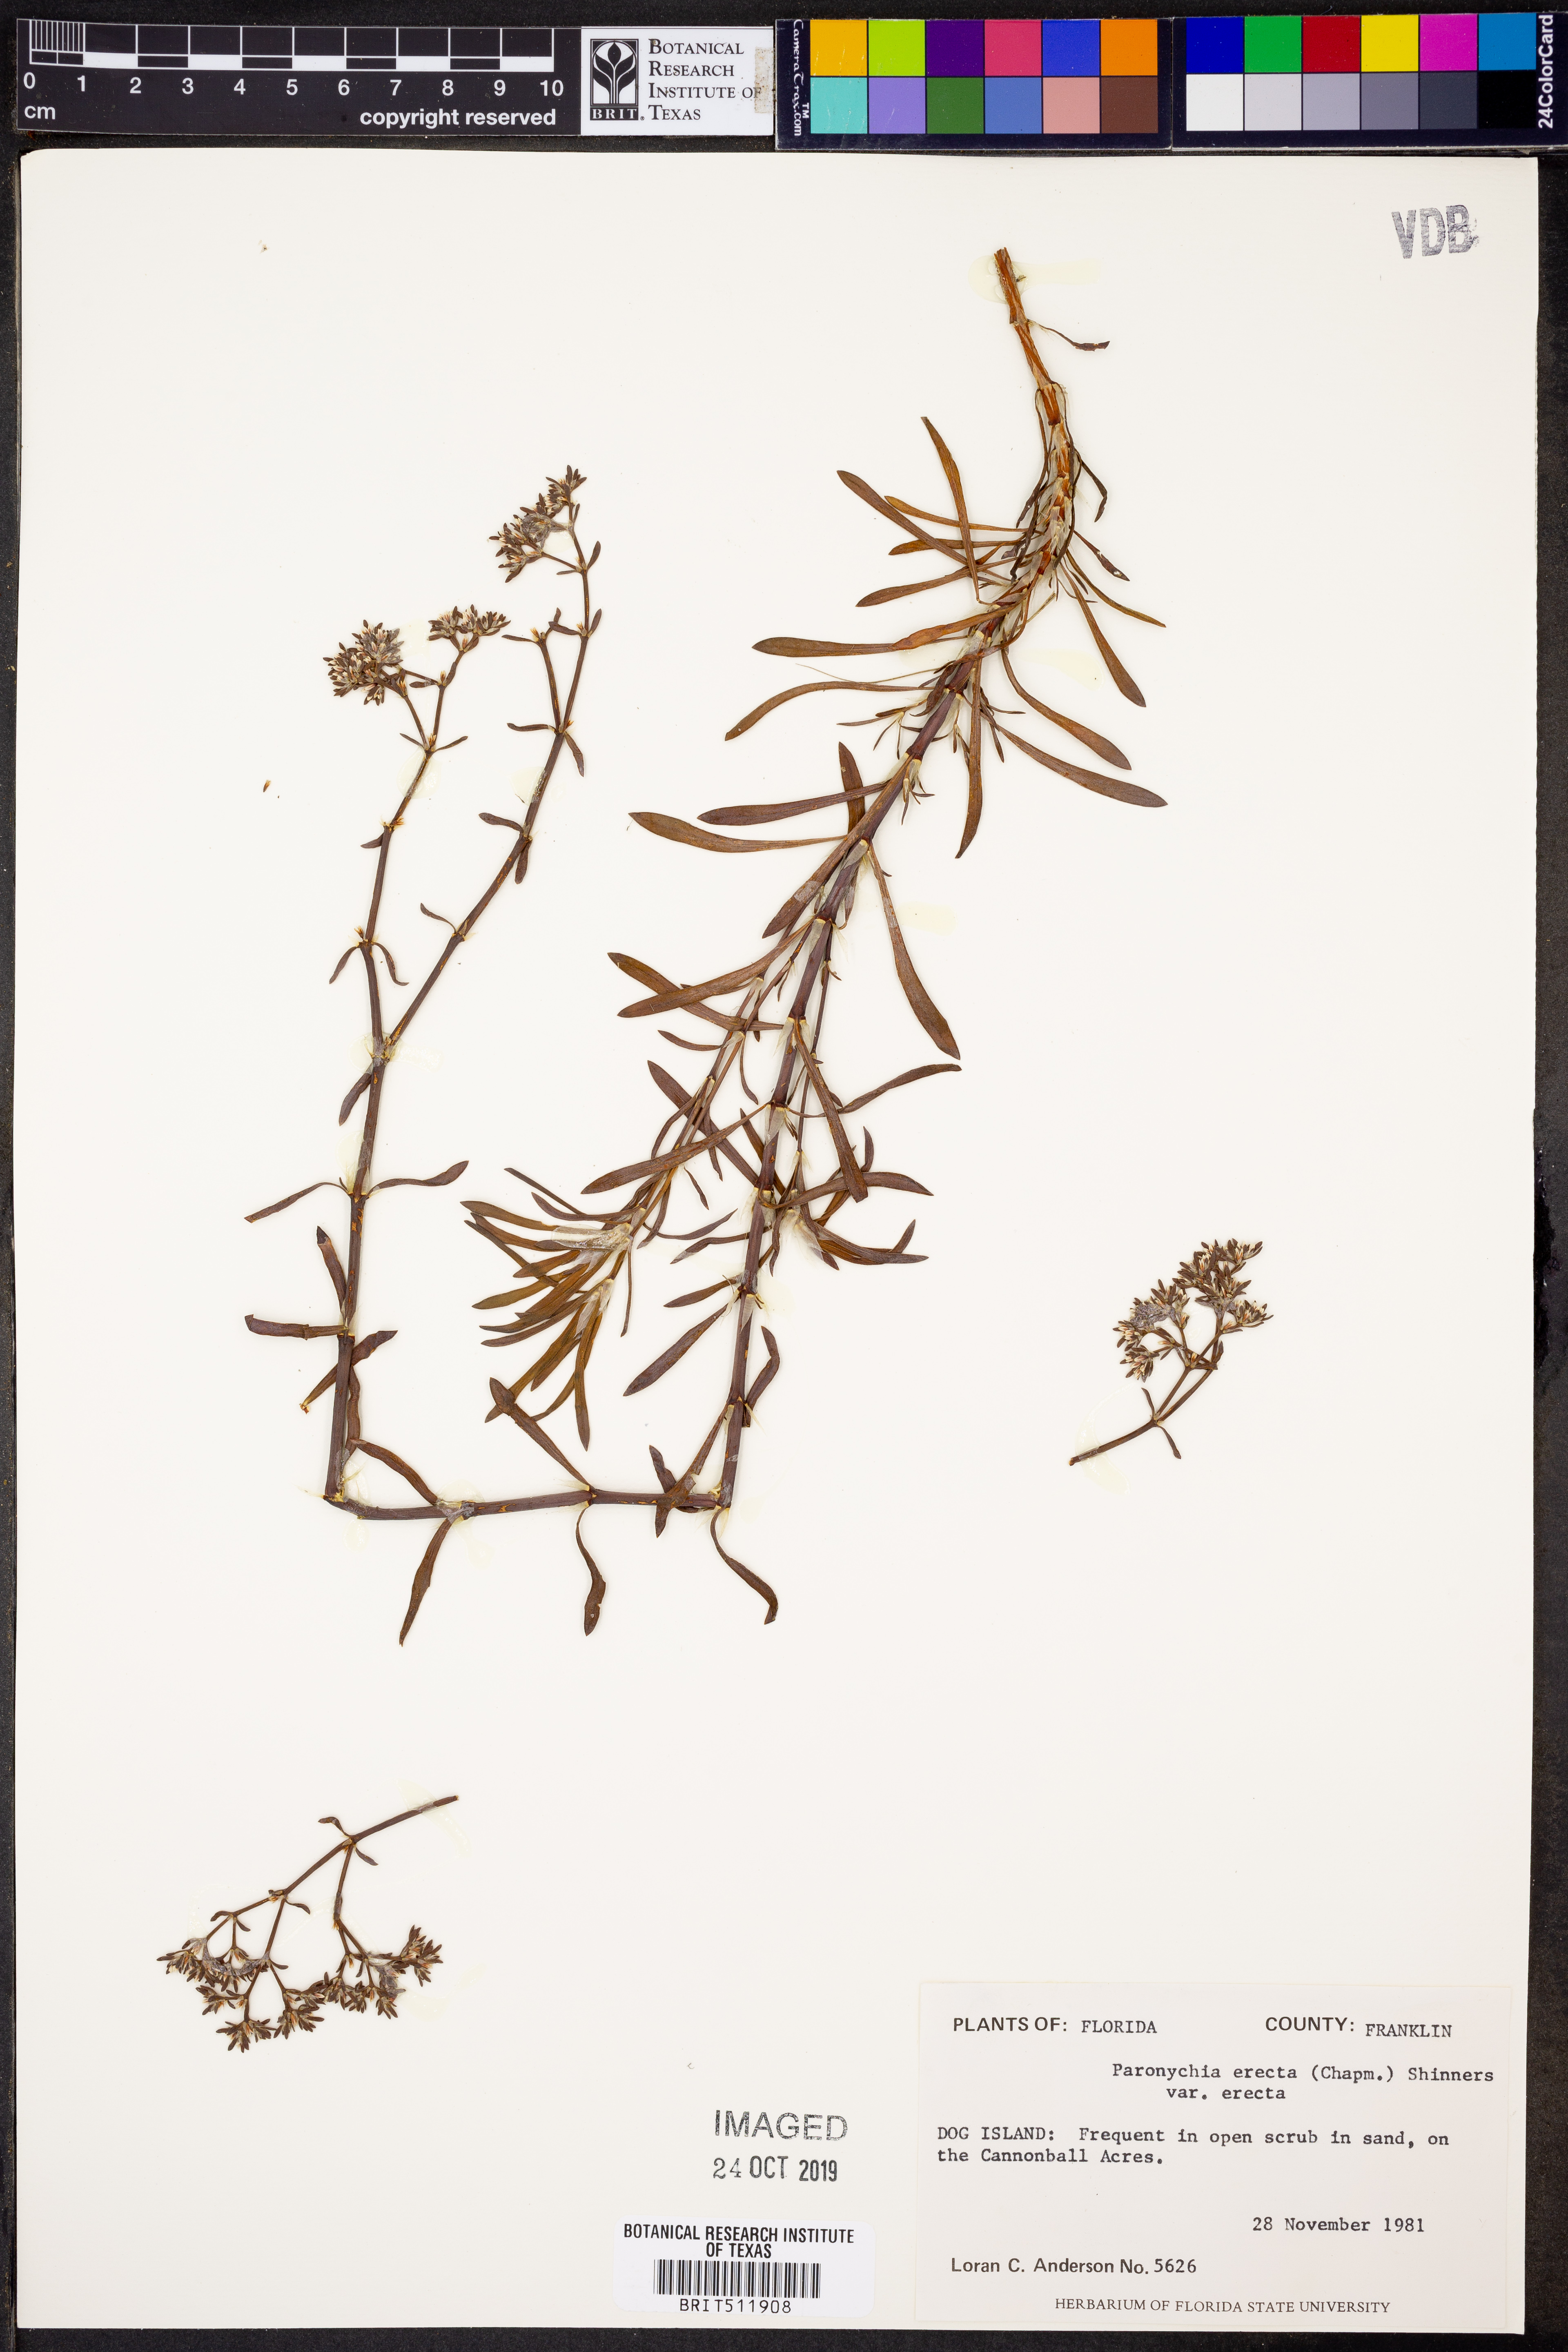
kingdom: Plantae
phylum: Tracheophyta
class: Magnoliopsida
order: Caryophyllales
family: Caryophyllaceae
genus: Paronychia
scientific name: Paronychia erecta
